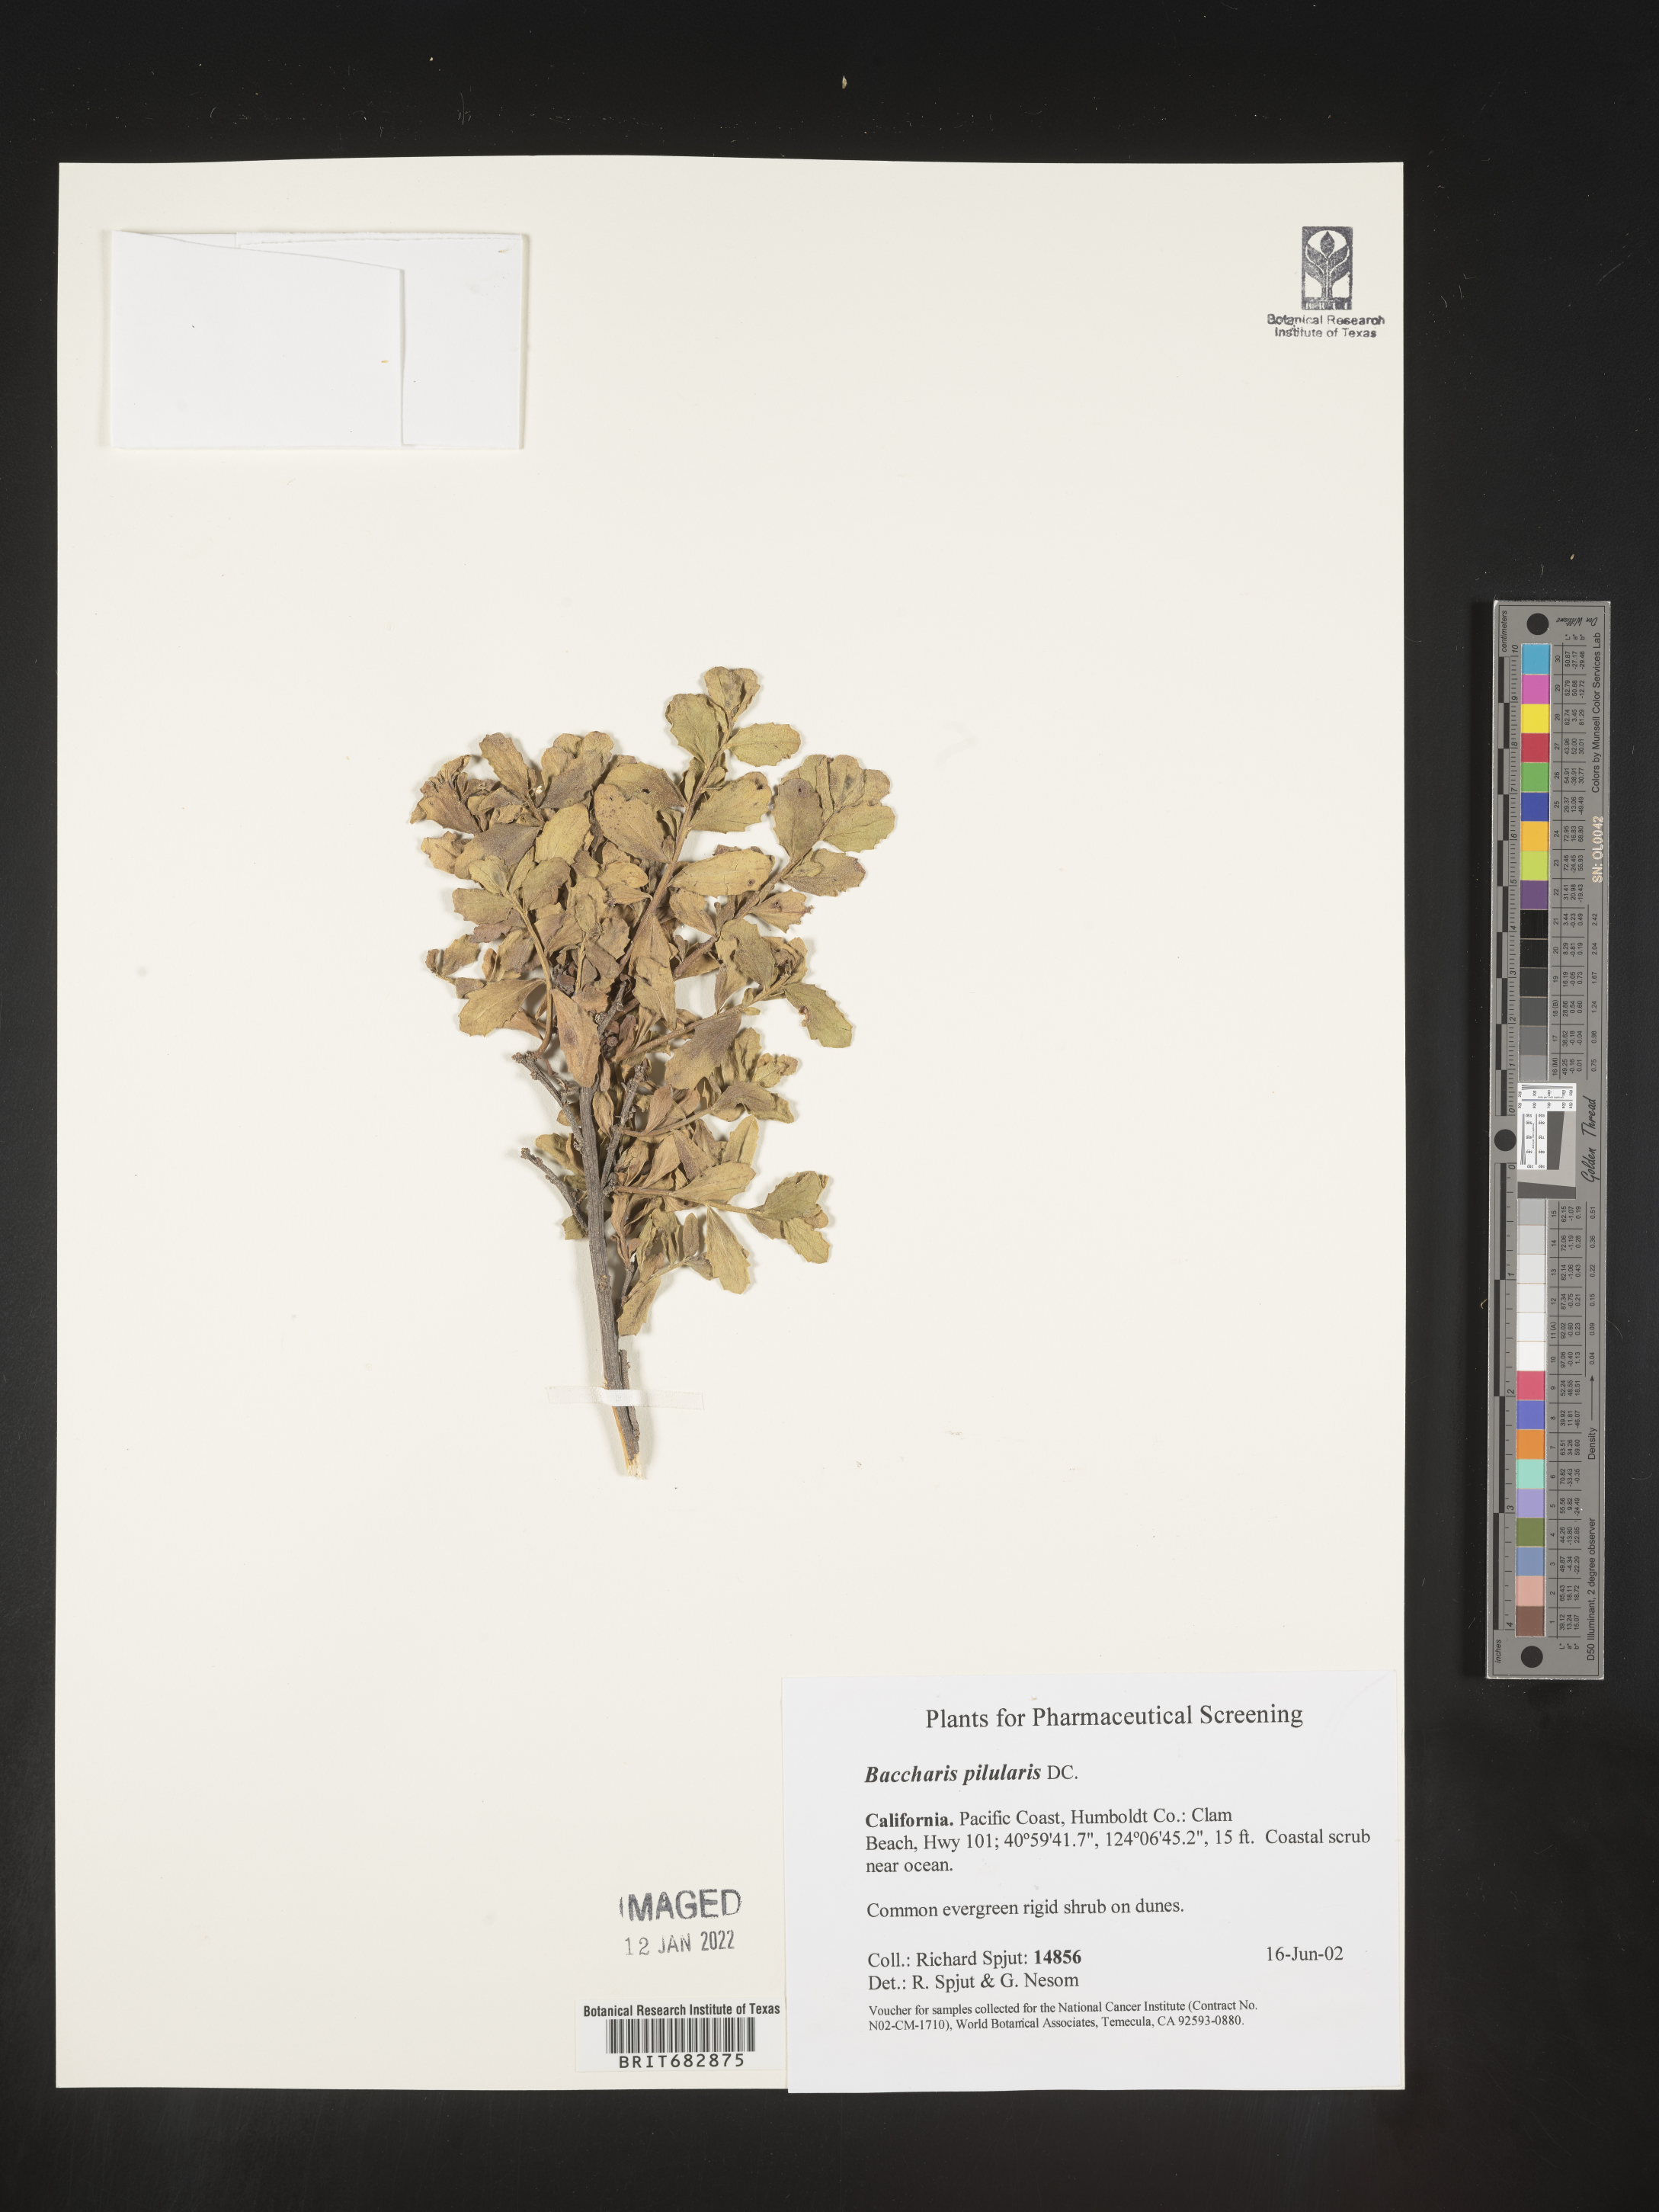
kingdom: Plantae
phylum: Tracheophyta
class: Magnoliopsida
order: Asterales
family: Asteraceae
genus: Baccharis
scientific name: Baccharis pilularis
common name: Coyotebrush
